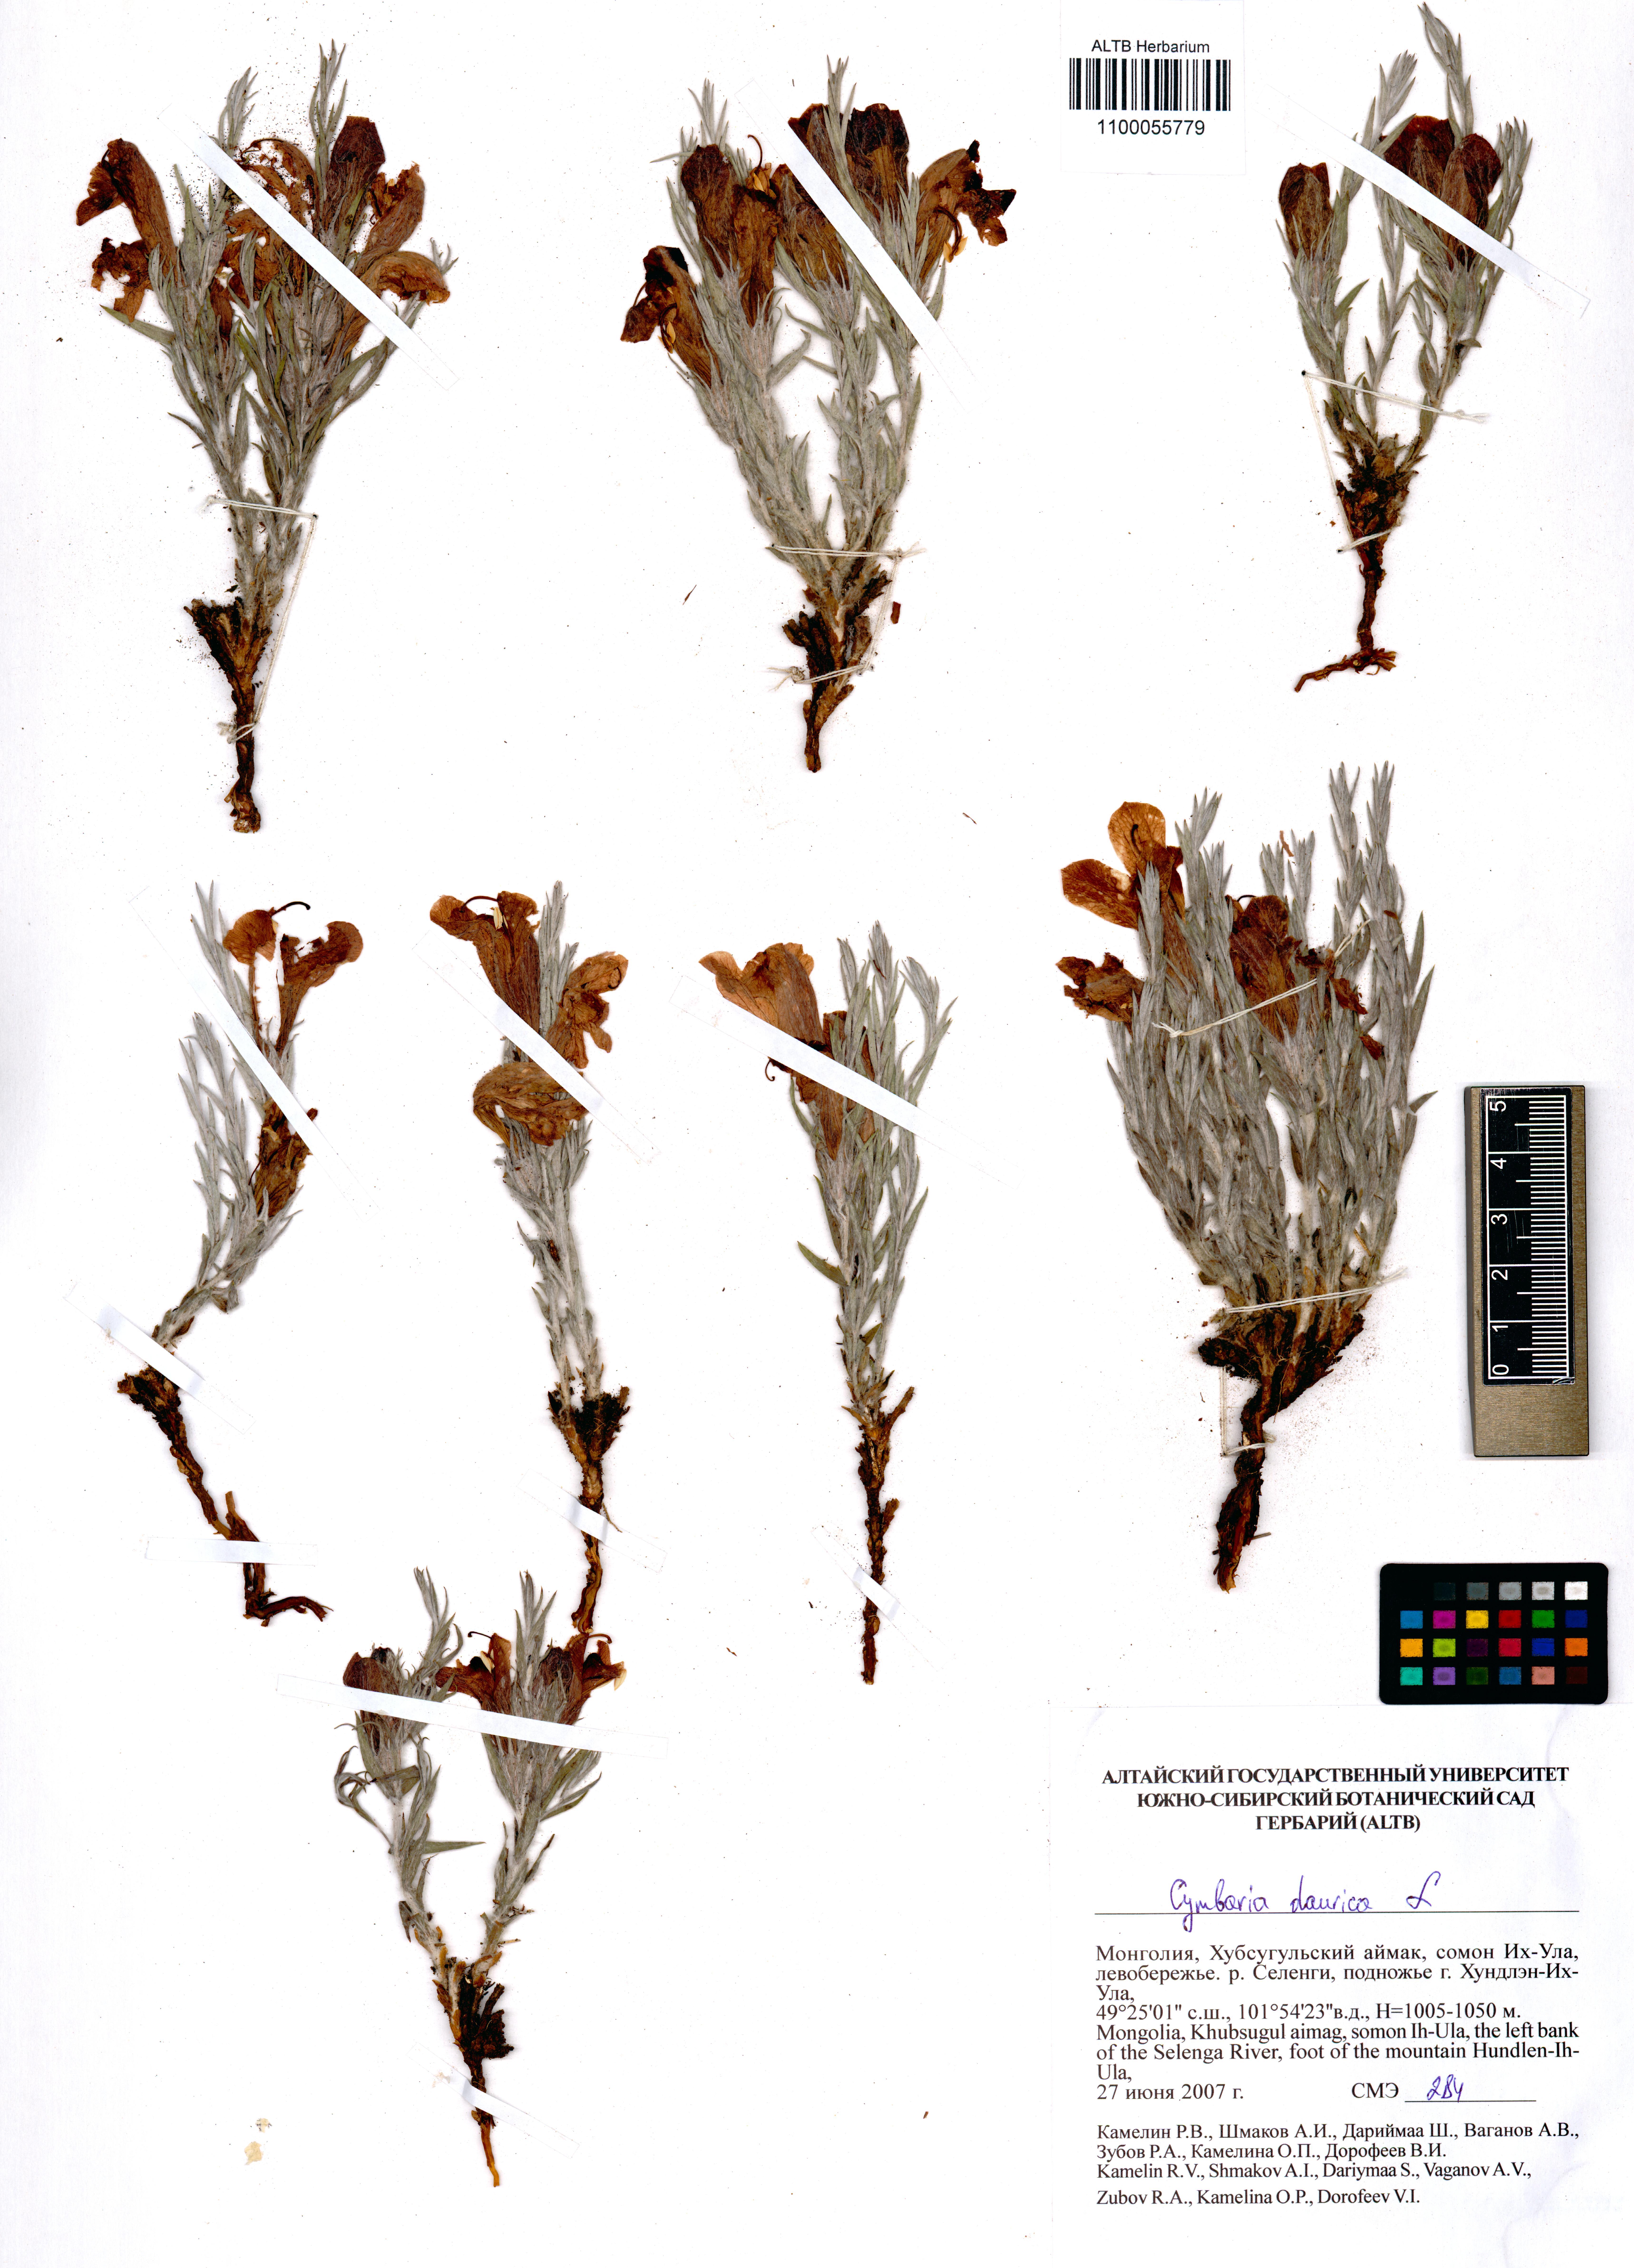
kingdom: Plantae
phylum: Tracheophyta
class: Magnoliopsida
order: Lamiales
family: Orobanchaceae
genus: Cymbaria
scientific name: Cymbaria daurica
